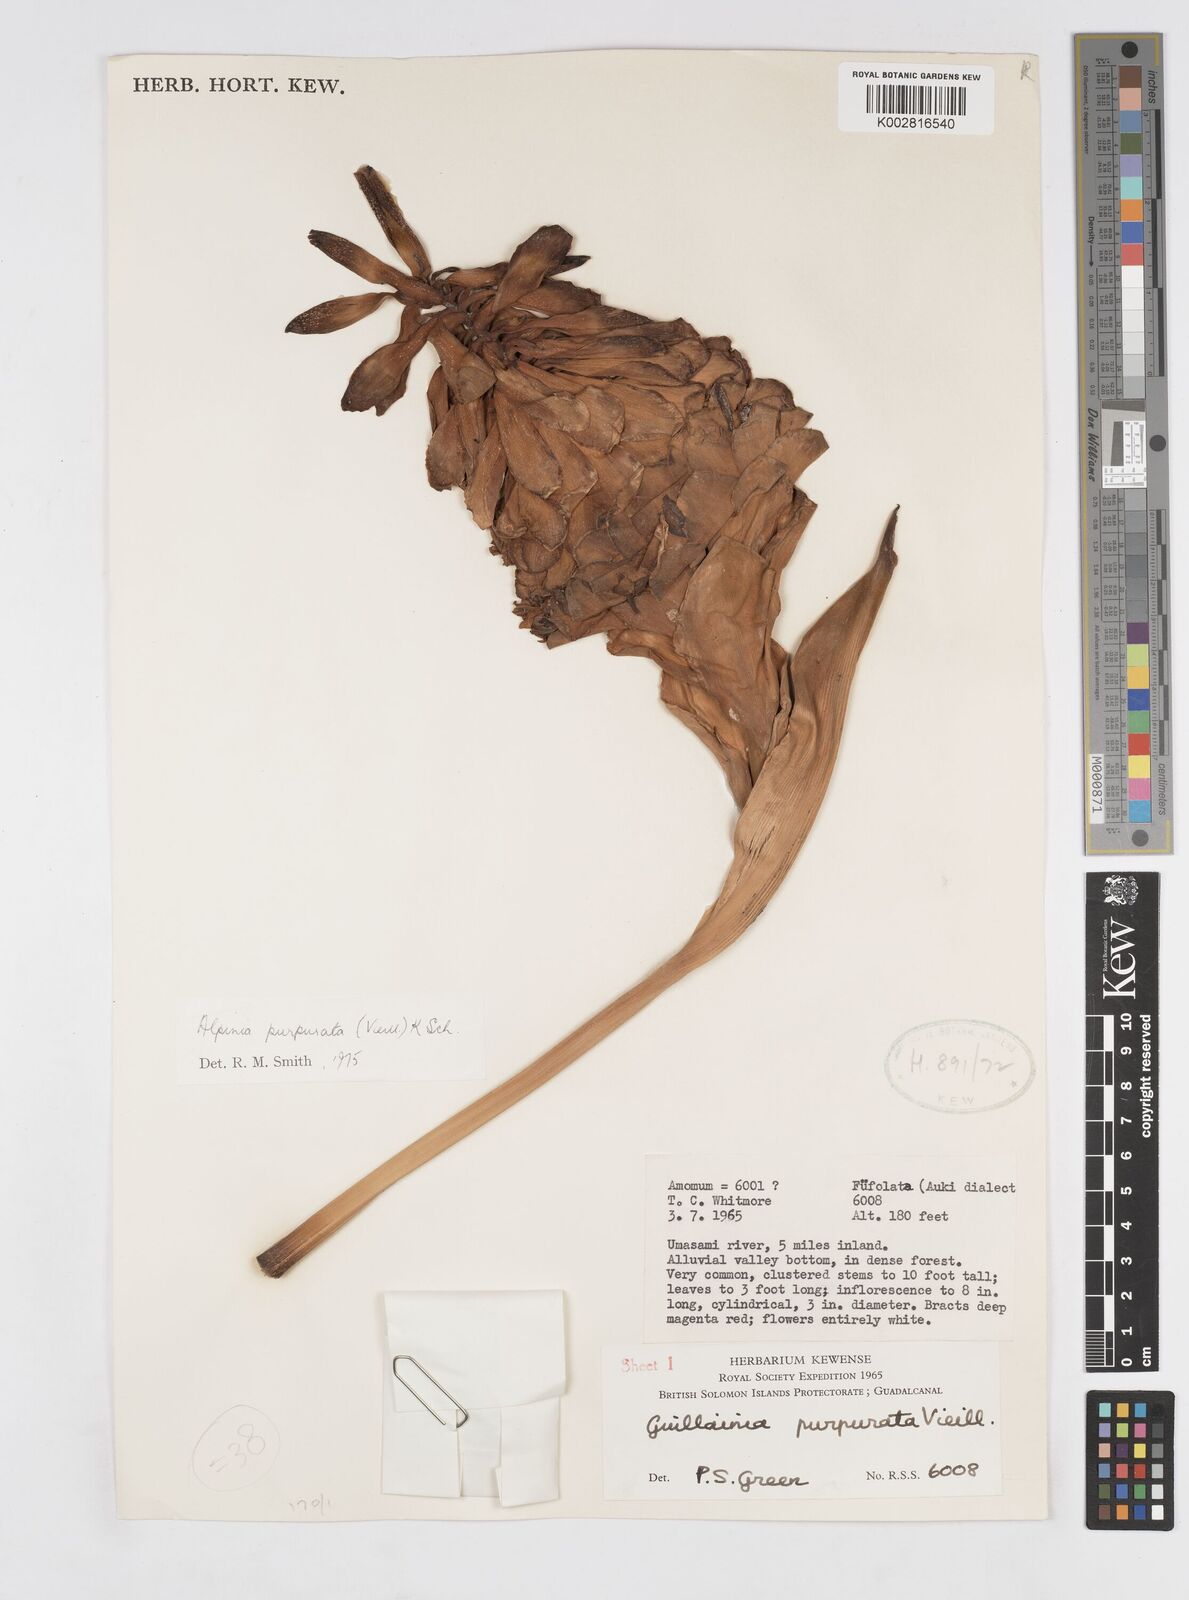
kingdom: Plantae
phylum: Tracheophyta
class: Liliopsida
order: Zingiberales
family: Zingiberaceae
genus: Alpinia
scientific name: Alpinia purpurata
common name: Red ginger
